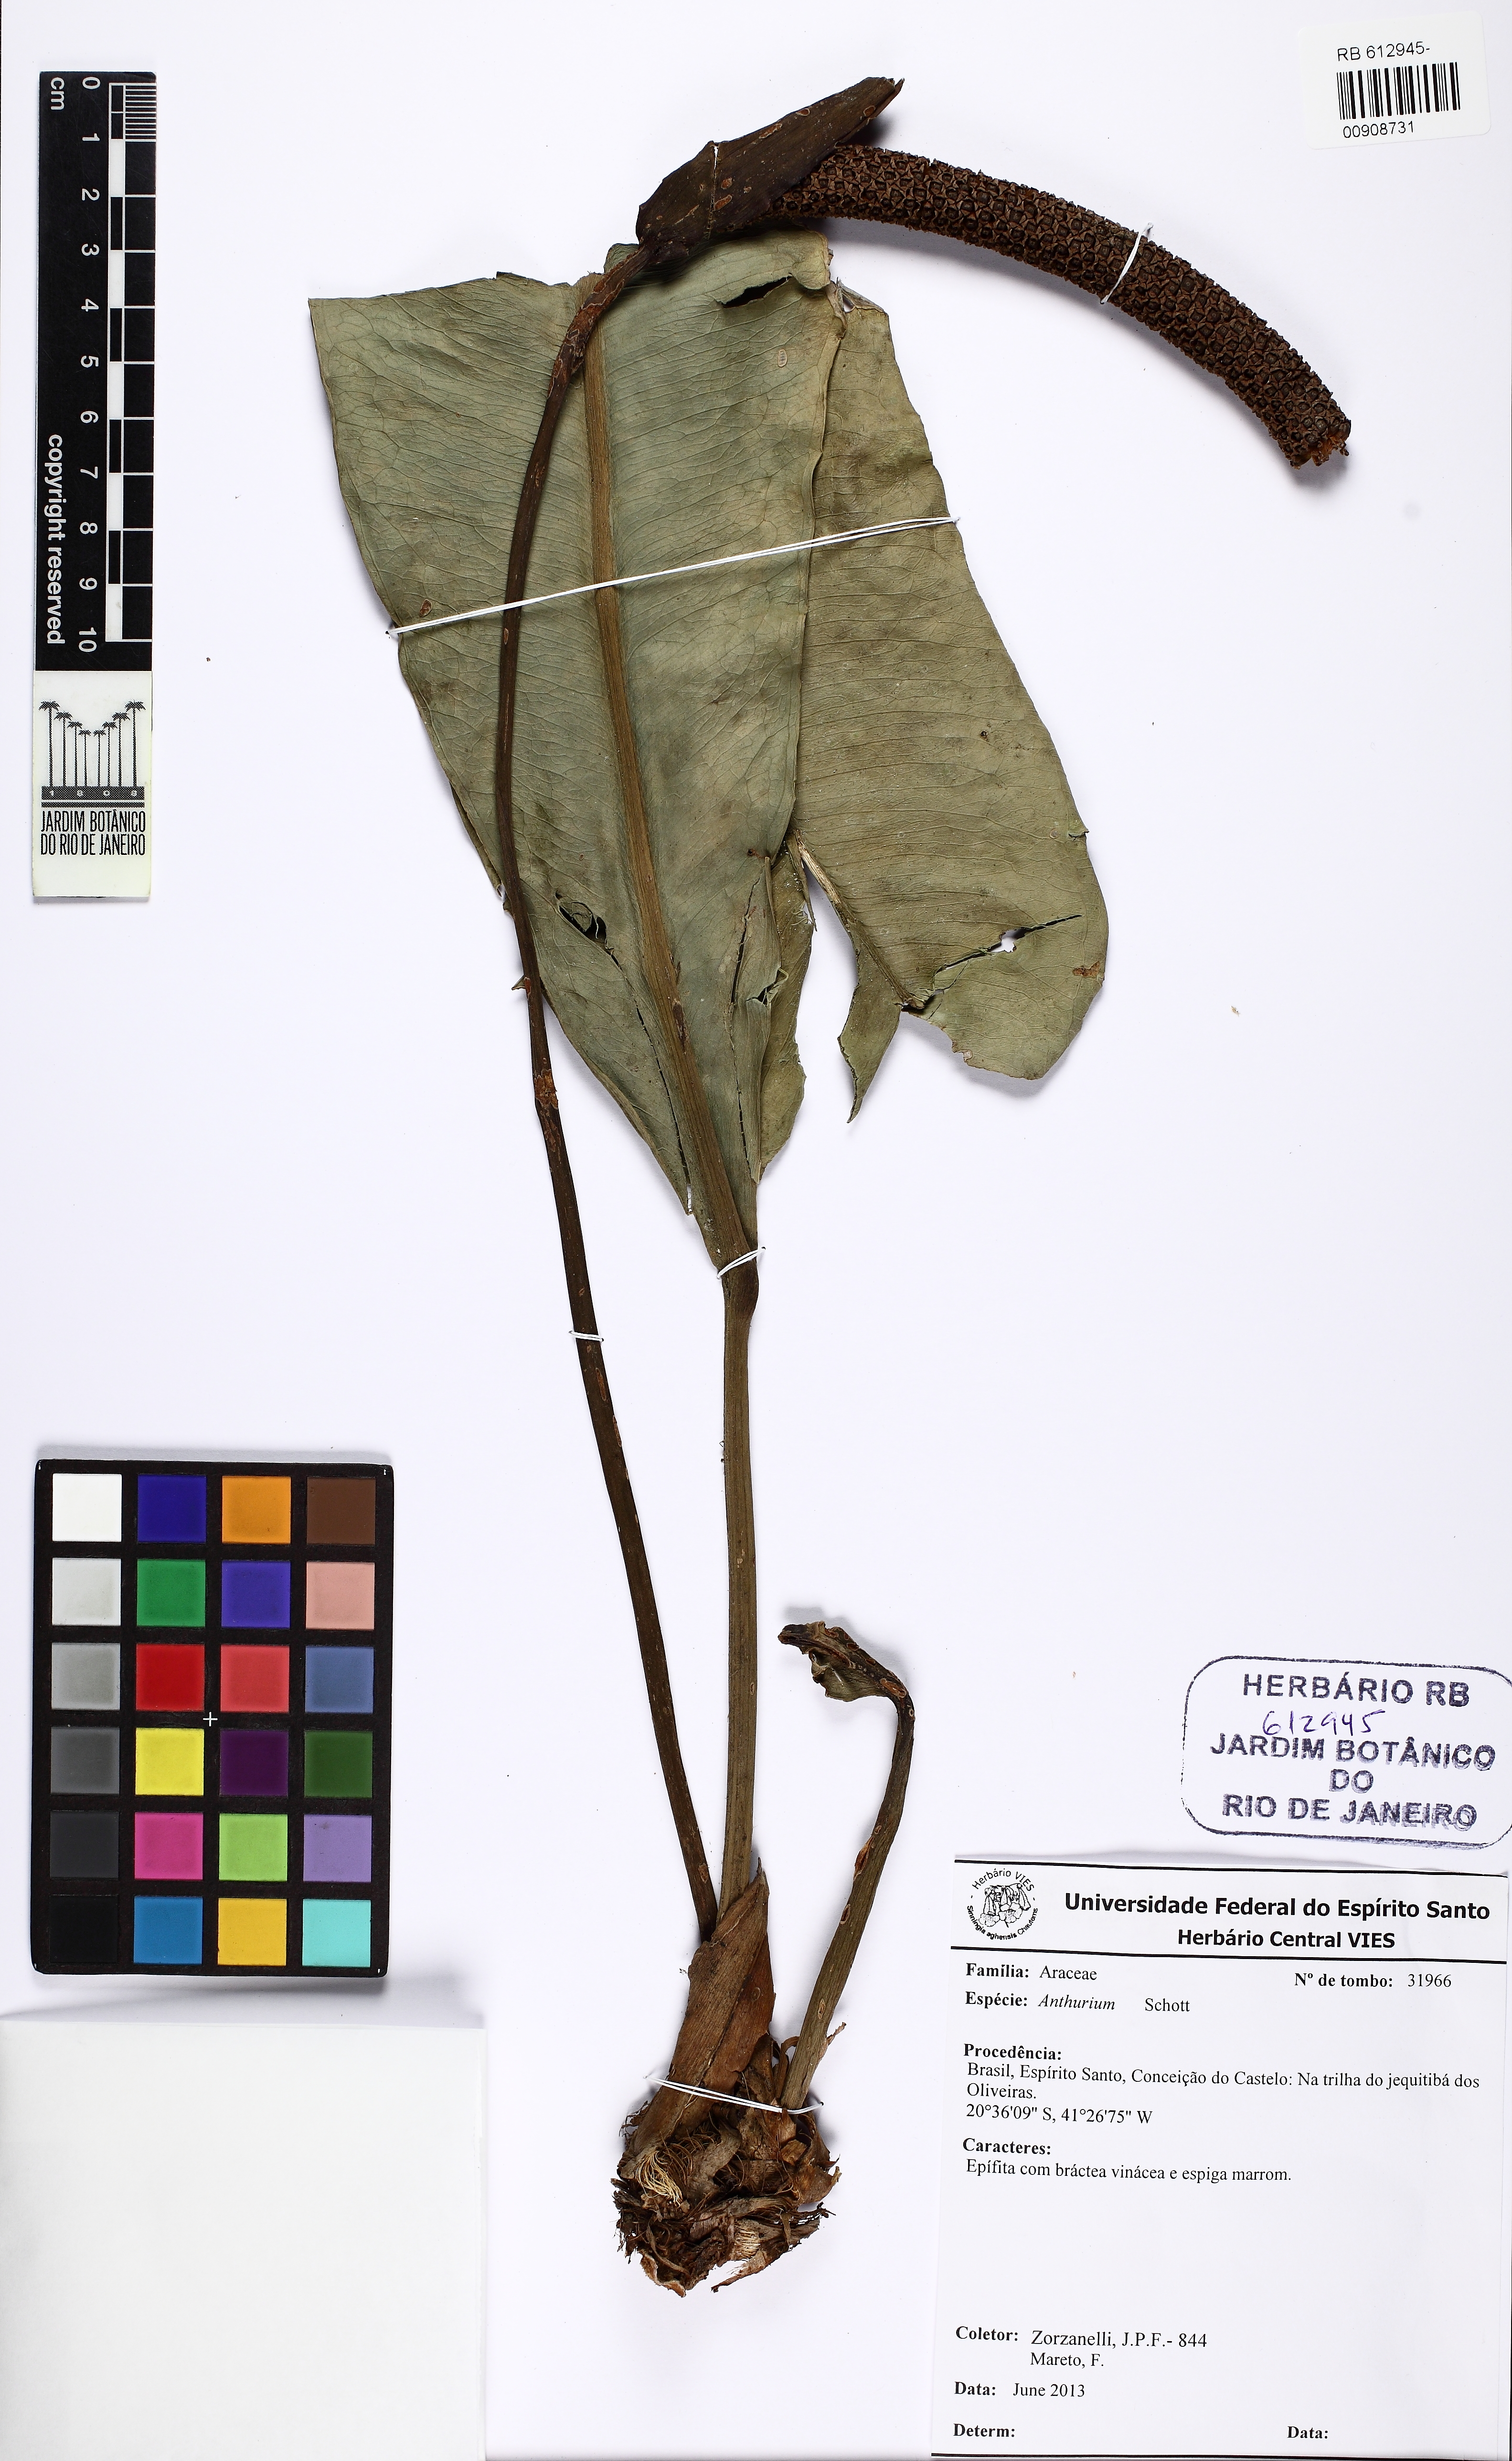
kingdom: Plantae
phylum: Tracheophyta
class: Liliopsida
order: Alismatales
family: Araceae
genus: Anthurium
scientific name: Anthurium angustifolium
